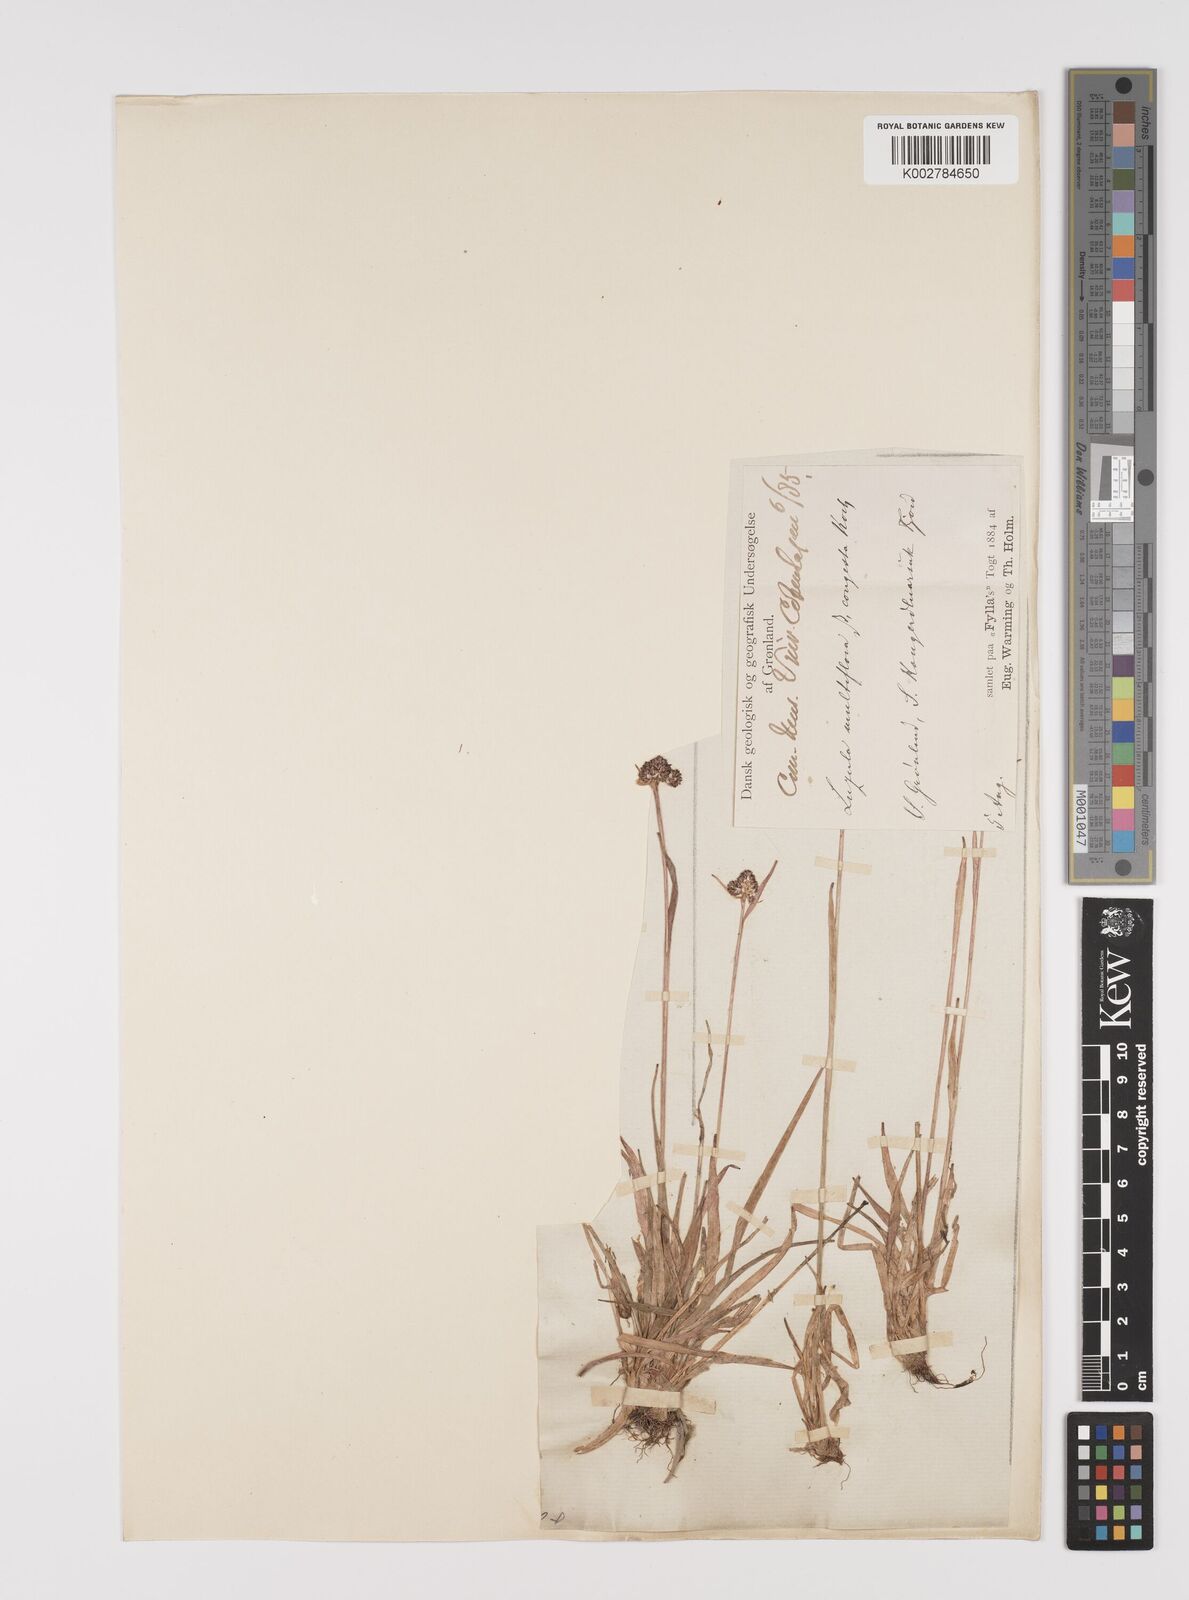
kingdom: Plantae
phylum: Tracheophyta
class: Liliopsida
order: Poales
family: Juncaceae
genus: Luzula
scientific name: Luzula campestris
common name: Field wood-rush
